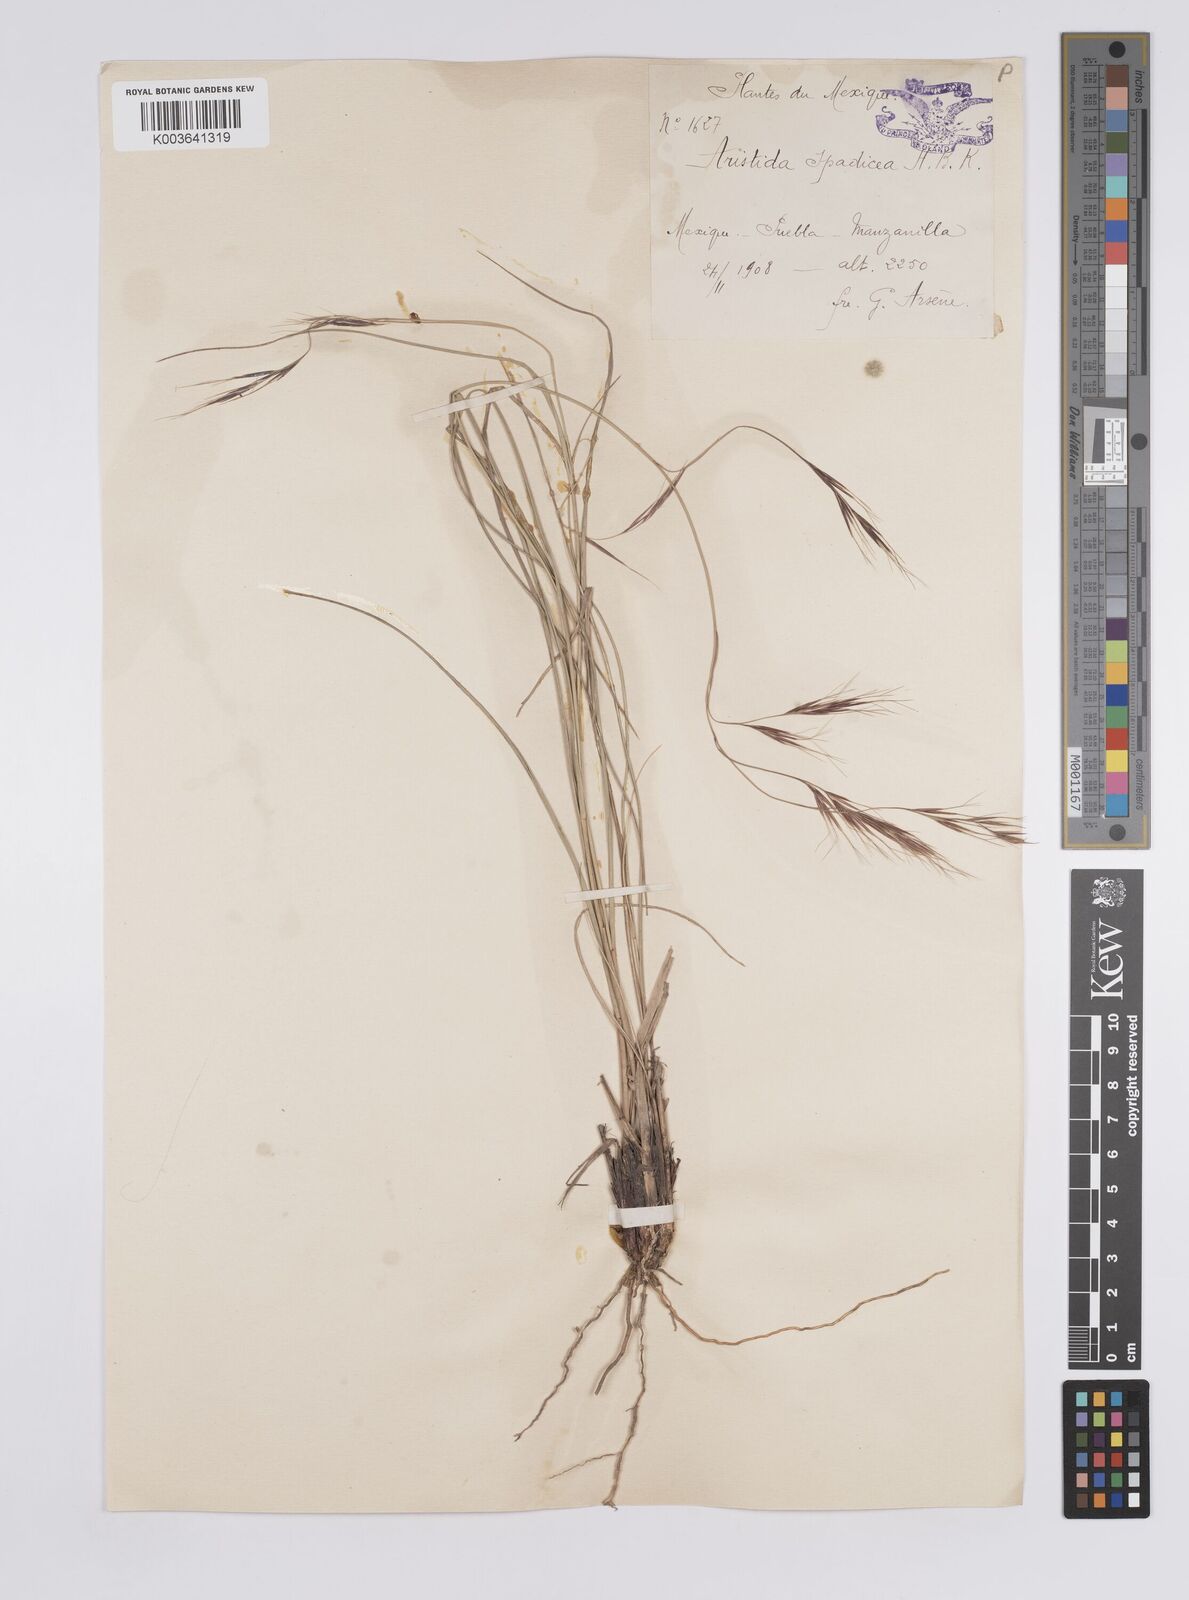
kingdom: Plantae
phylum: Tracheophyta
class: Liliopsida
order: Poales
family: Poaceae
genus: Aristida
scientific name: Aristida laxa
